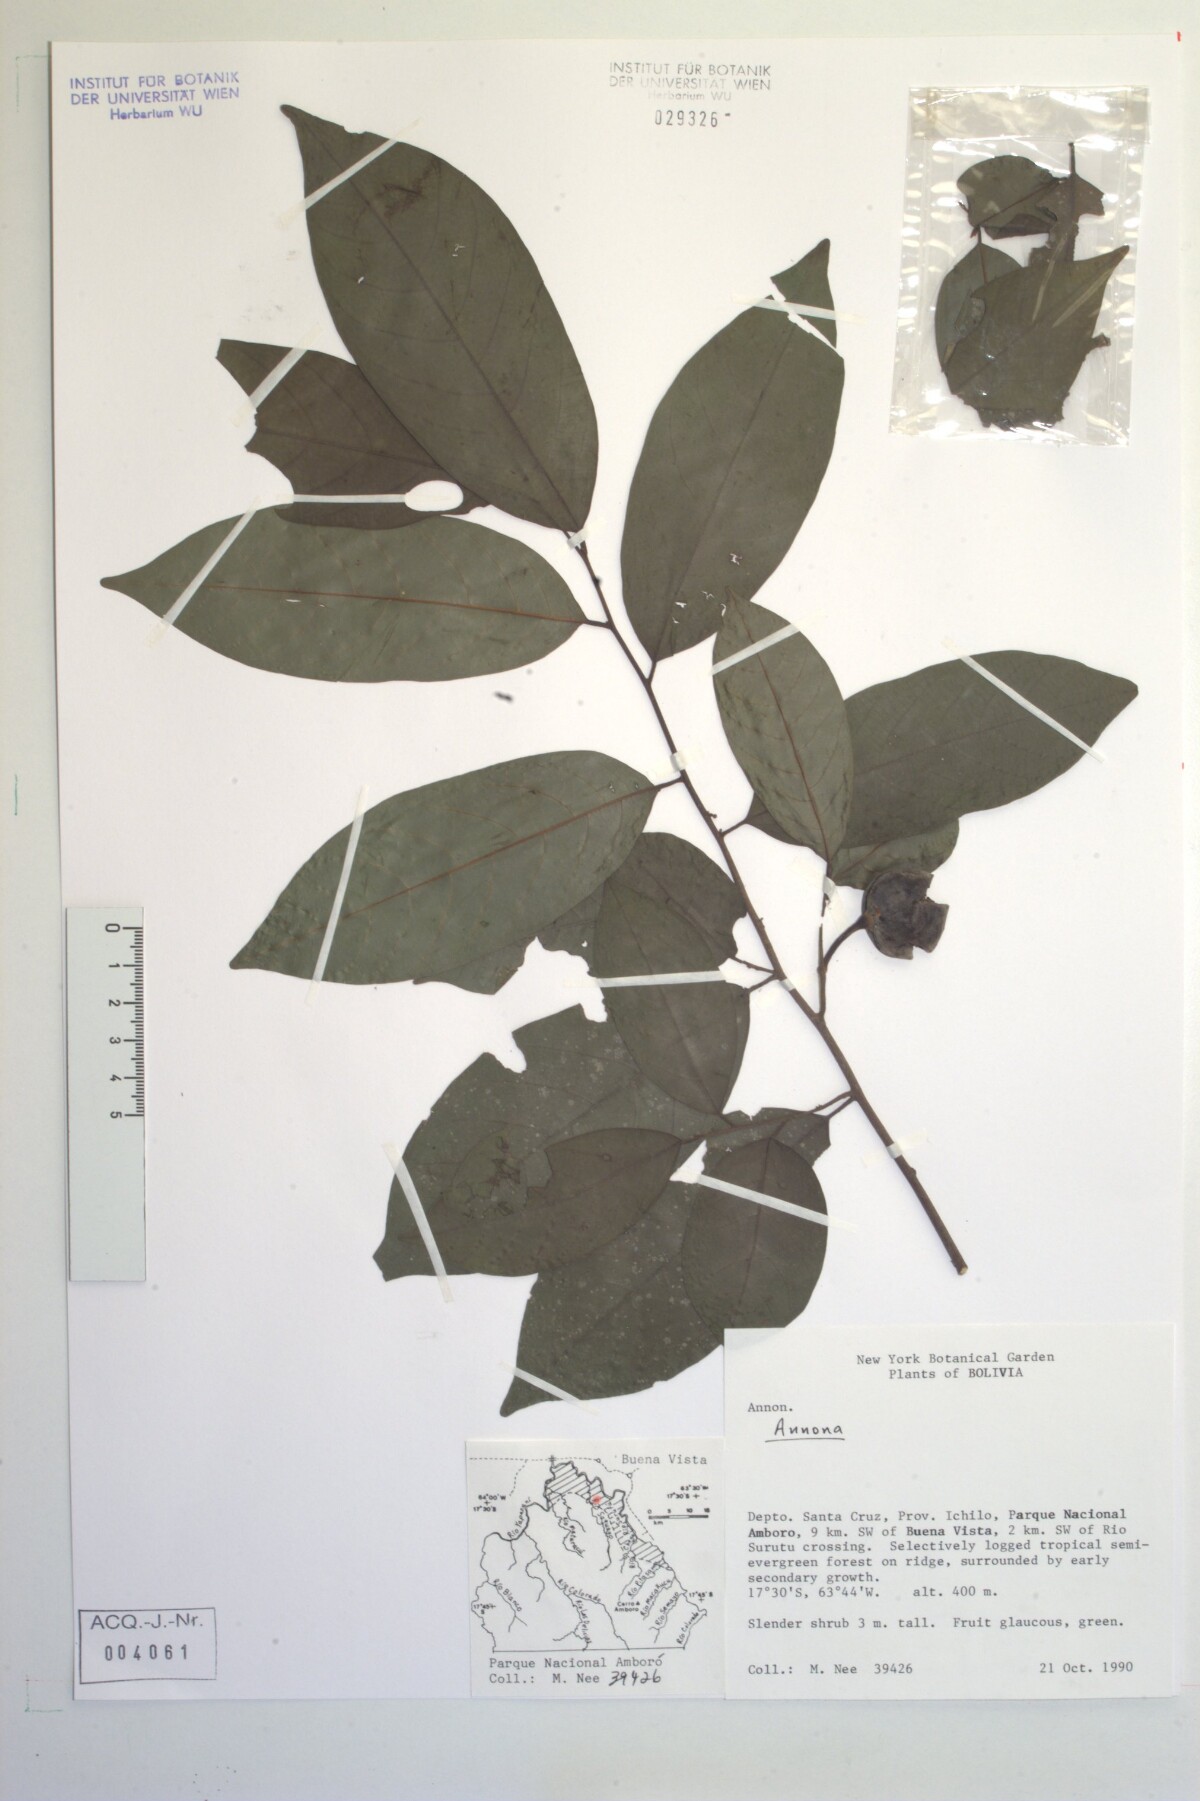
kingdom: Plantae
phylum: Tracheophyta
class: Magnoliopsida
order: Magnoliales
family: Annonaceae
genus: Annona
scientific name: Annona
